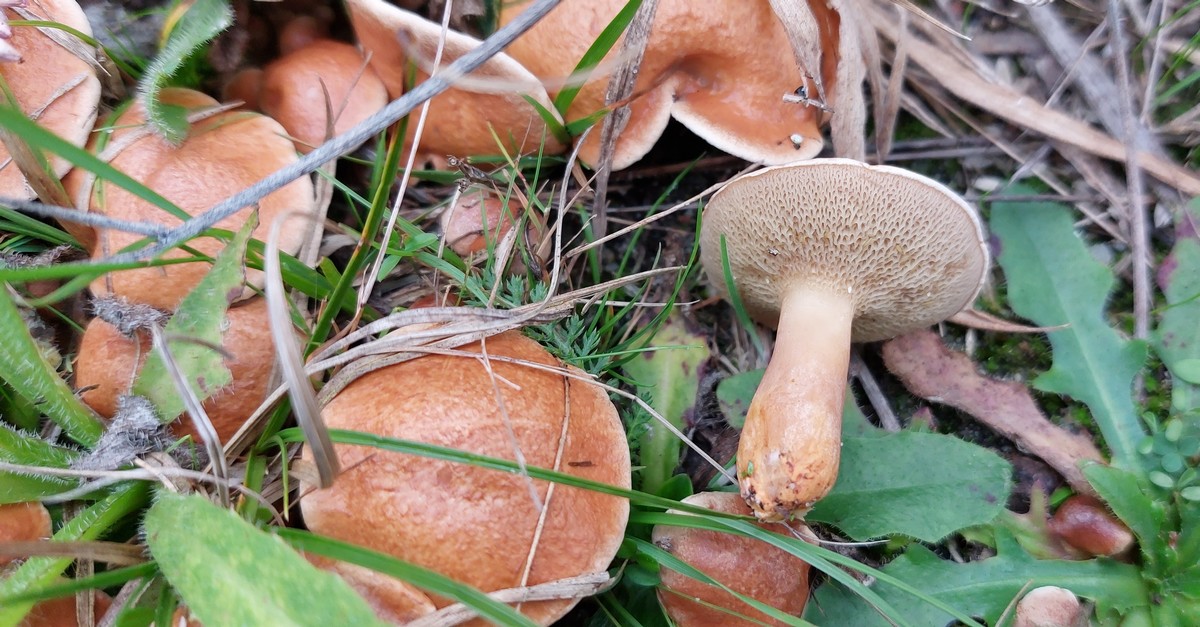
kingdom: Fungi
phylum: Basidiomycota
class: Agaricomycetes
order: Boletales
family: Suillaceae
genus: Suillus
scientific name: Suillus bovinus
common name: grovporet slimrørhat
